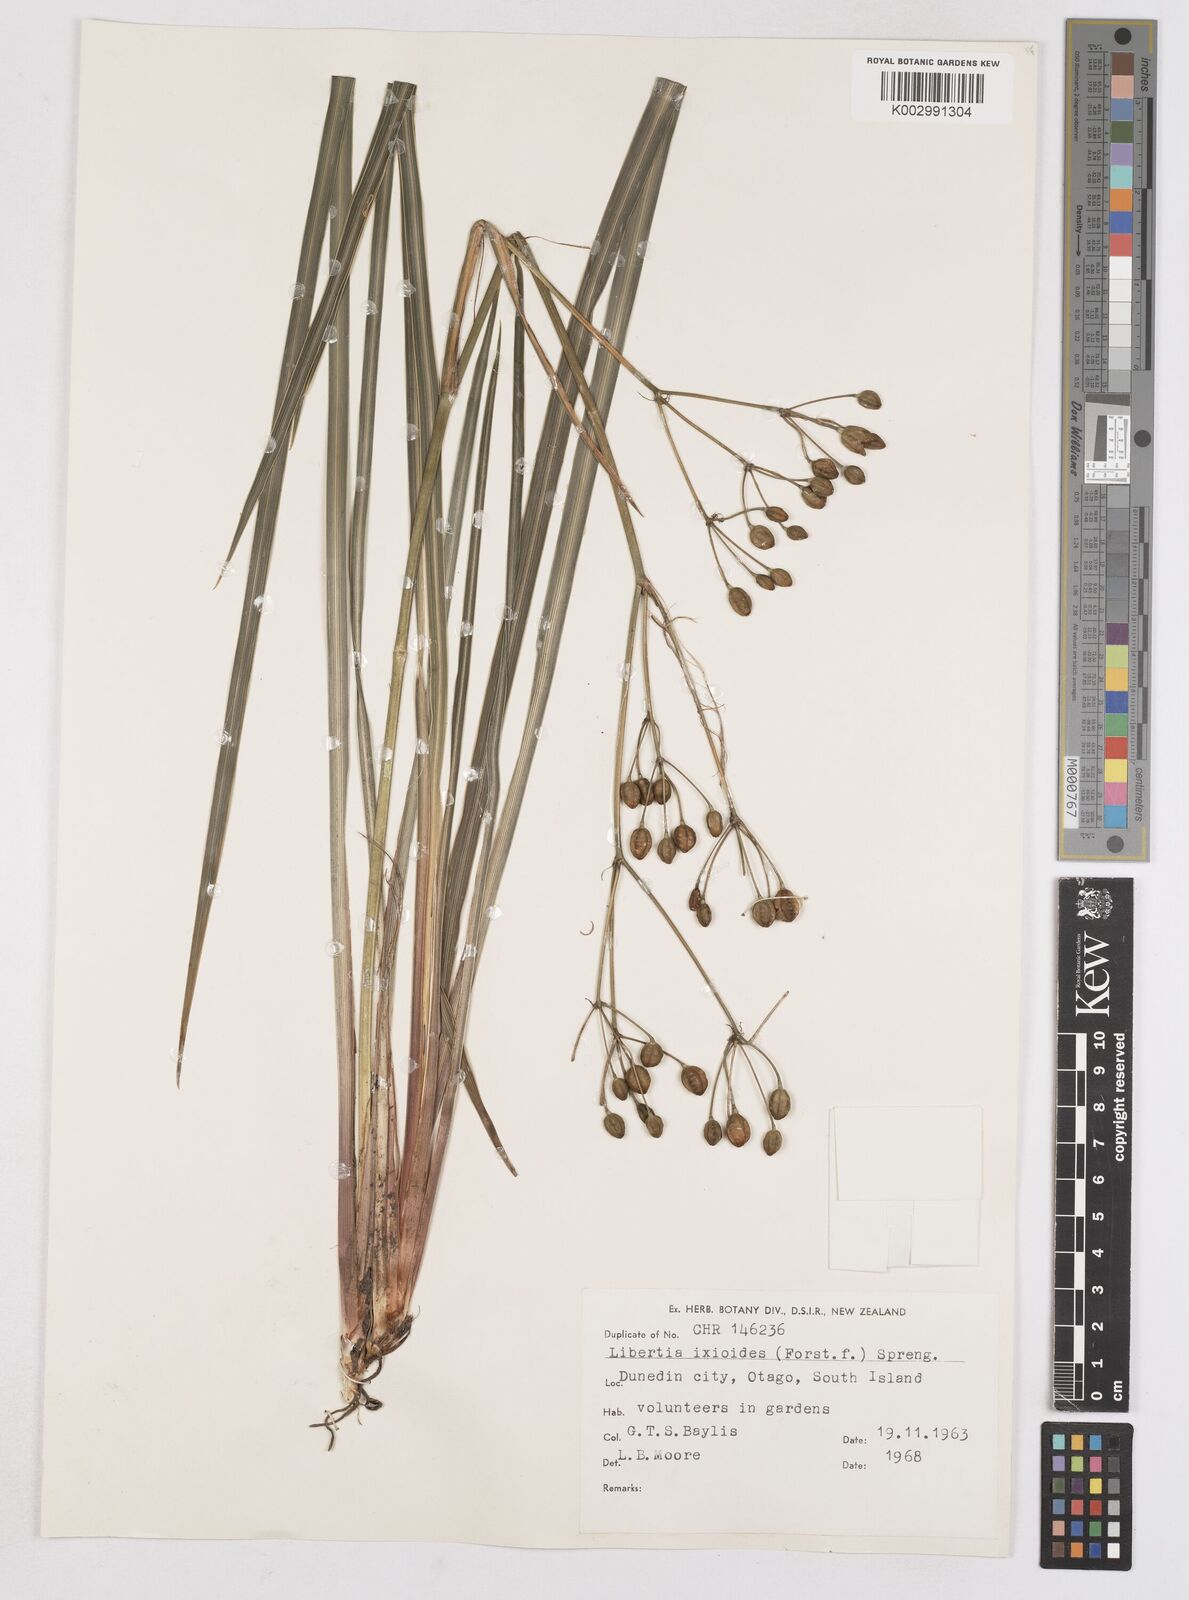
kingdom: Plantae
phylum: Tracheophyta
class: Liliopsida
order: Asparagales
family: Iridaceae
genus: Libertia
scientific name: Libertia ixioides
